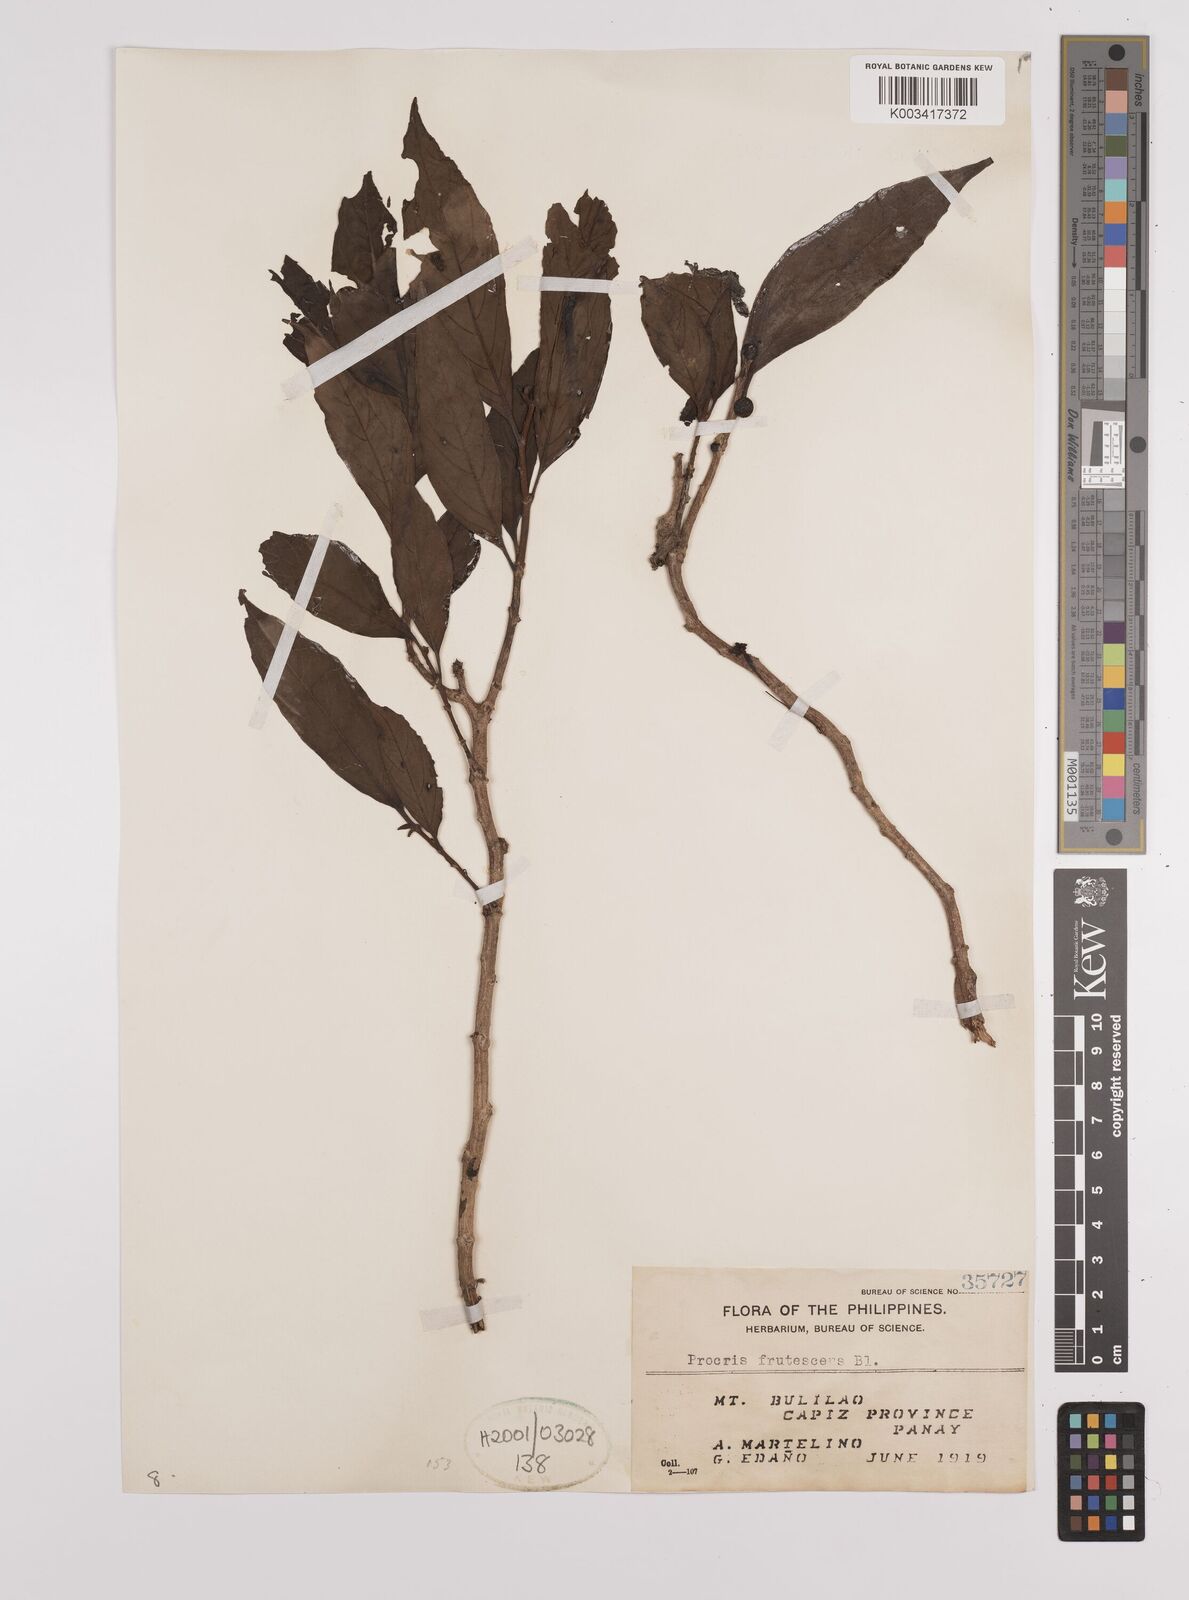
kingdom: Plantae
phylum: Tracheophyta
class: Magnoliopsida
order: Rosales
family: Urticaceae
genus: Procris
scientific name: Procris frutescens
